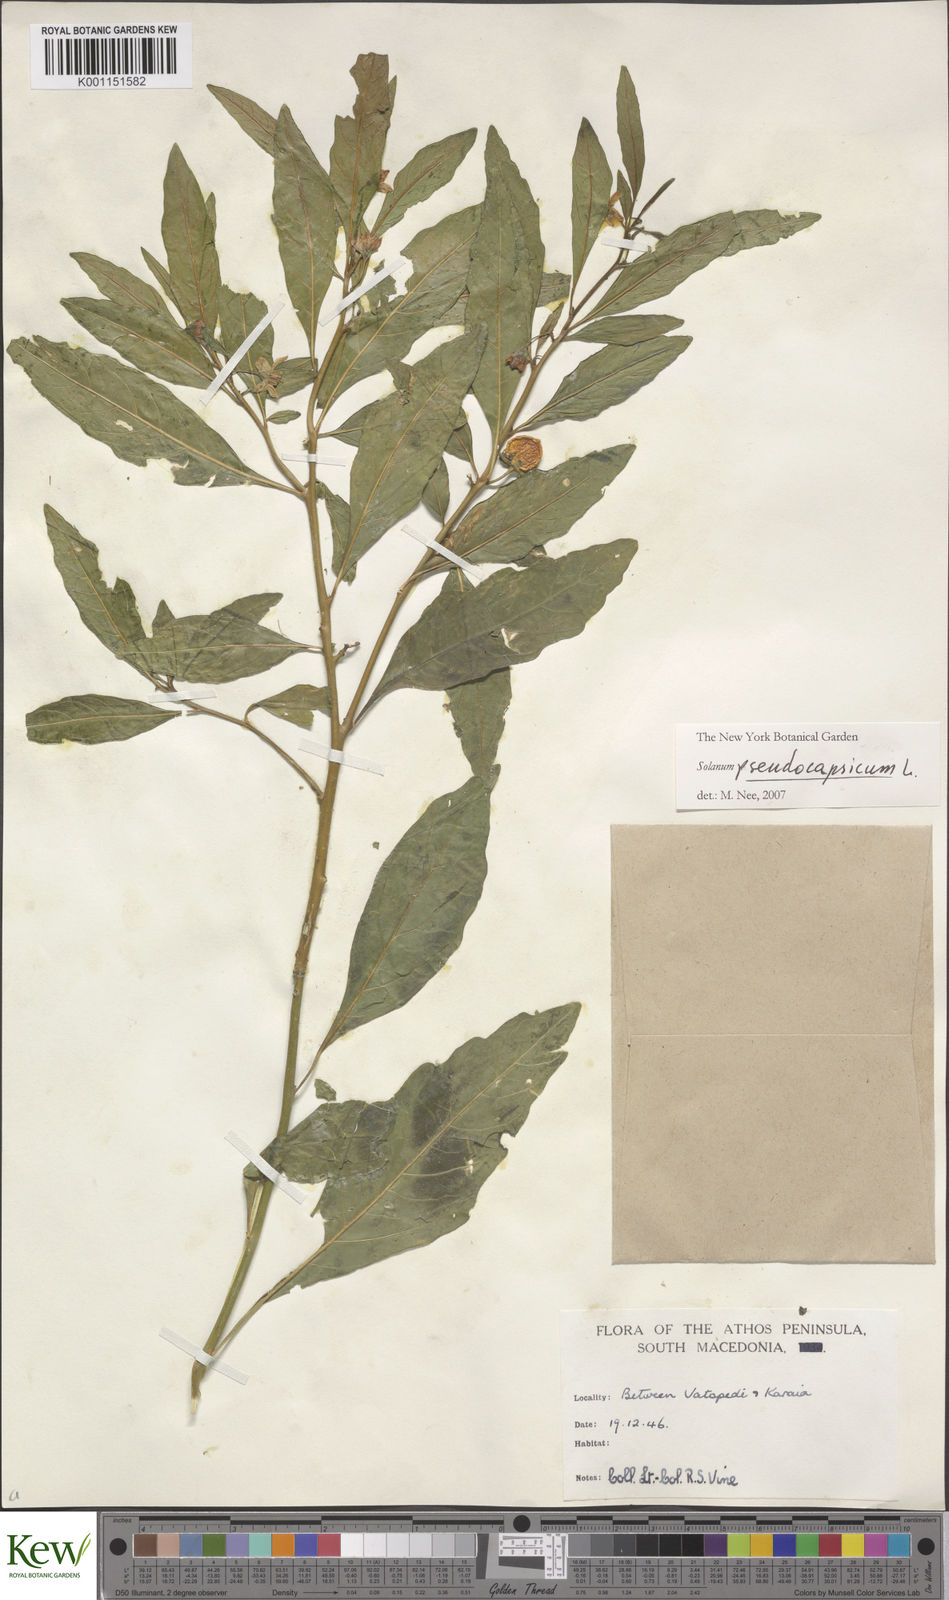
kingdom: Plantae
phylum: Tracheophyta
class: Magnoliopsida
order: Solanales
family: Solanaceae
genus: Solanum
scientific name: Solanum pseudocapsicum
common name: Jerusalem cherry
